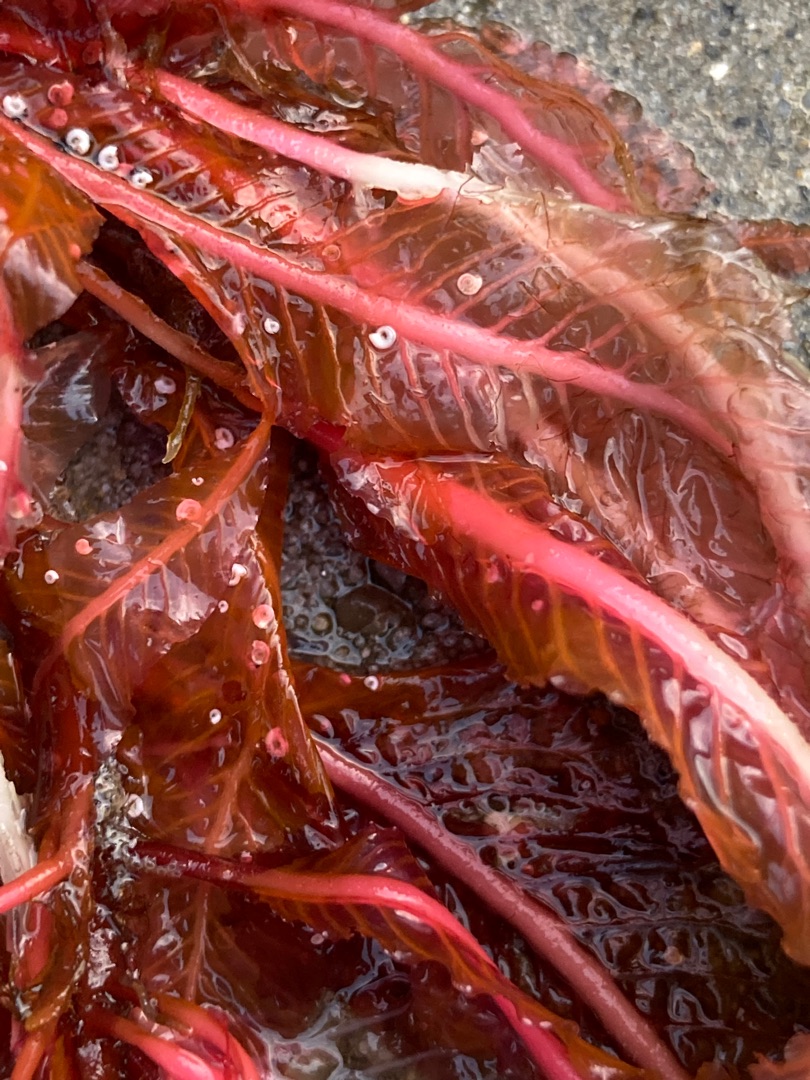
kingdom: Plantae
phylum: Rhodophyta
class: Florideophyceae
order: Ceramiales
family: Delesseriaceae
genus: Delesseria
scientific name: Delesseria sanguinea
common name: Blodrød ribbeblad
